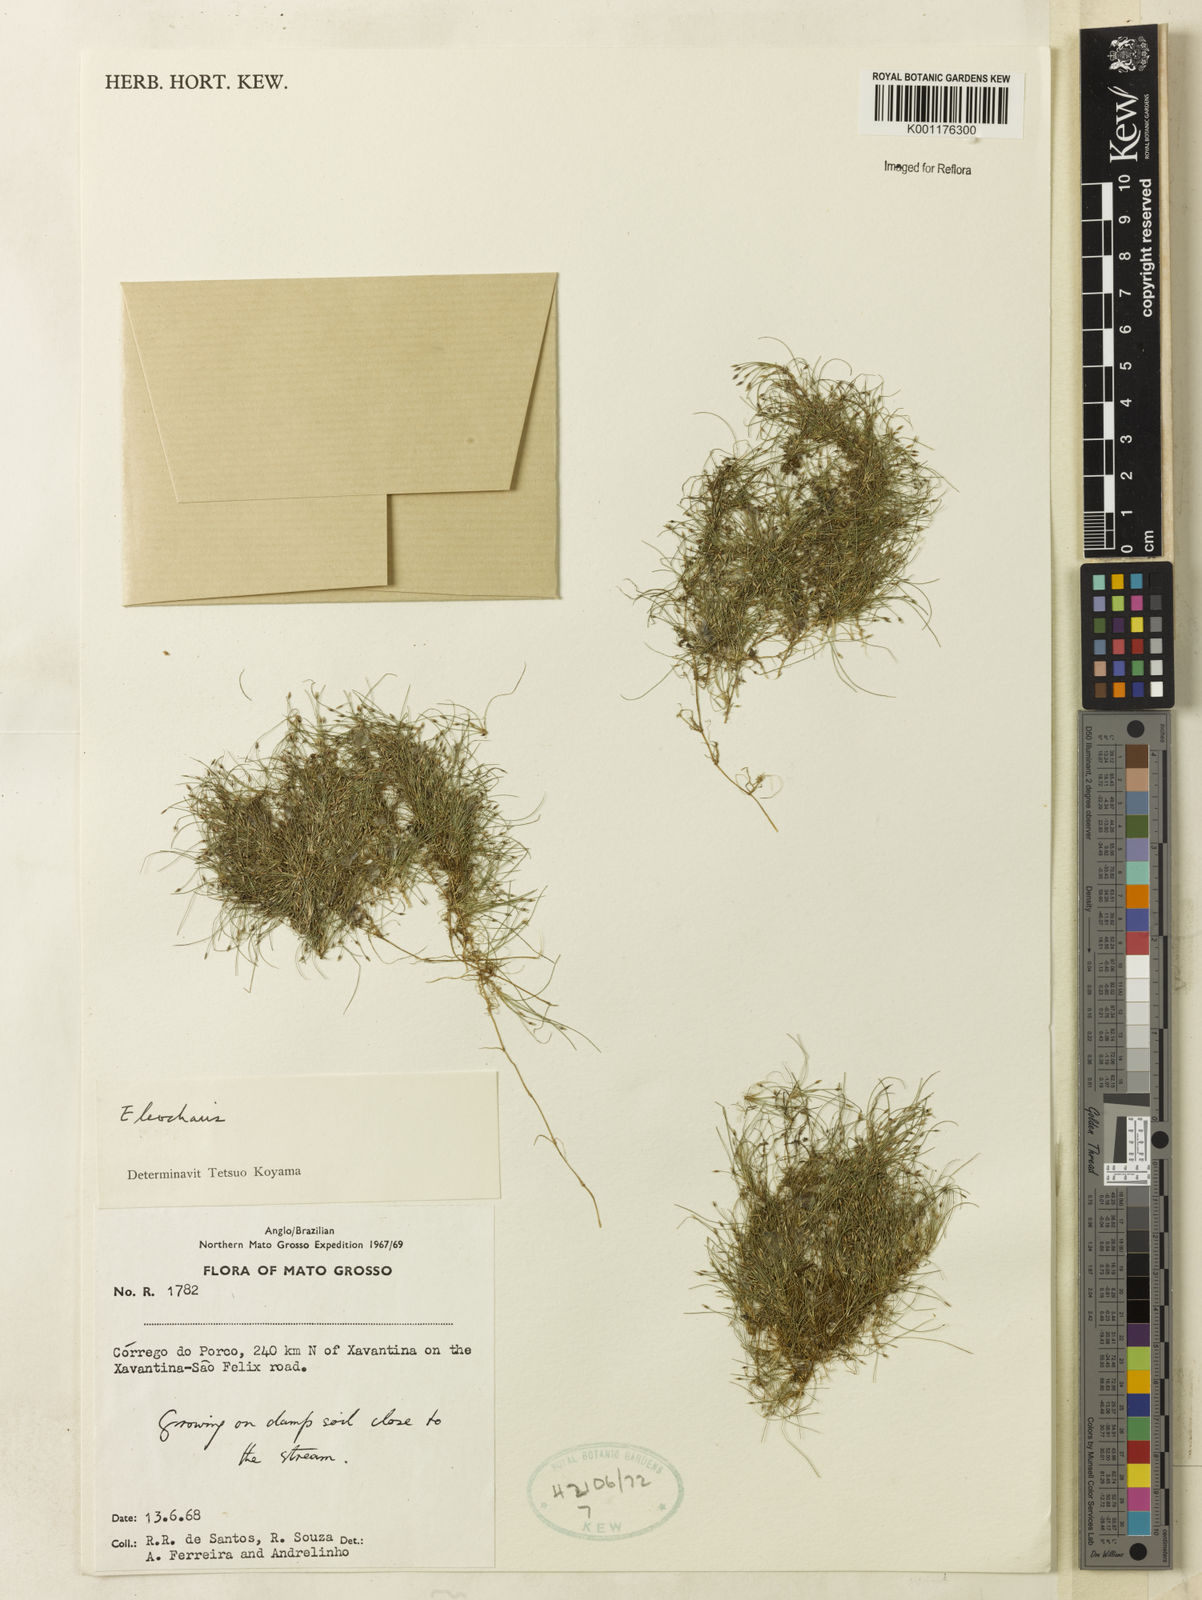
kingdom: Plantae
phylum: Tracheophyta
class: Liliopsida
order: Poales
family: Cyperaceae
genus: Eleocharis
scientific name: Eleocharis
